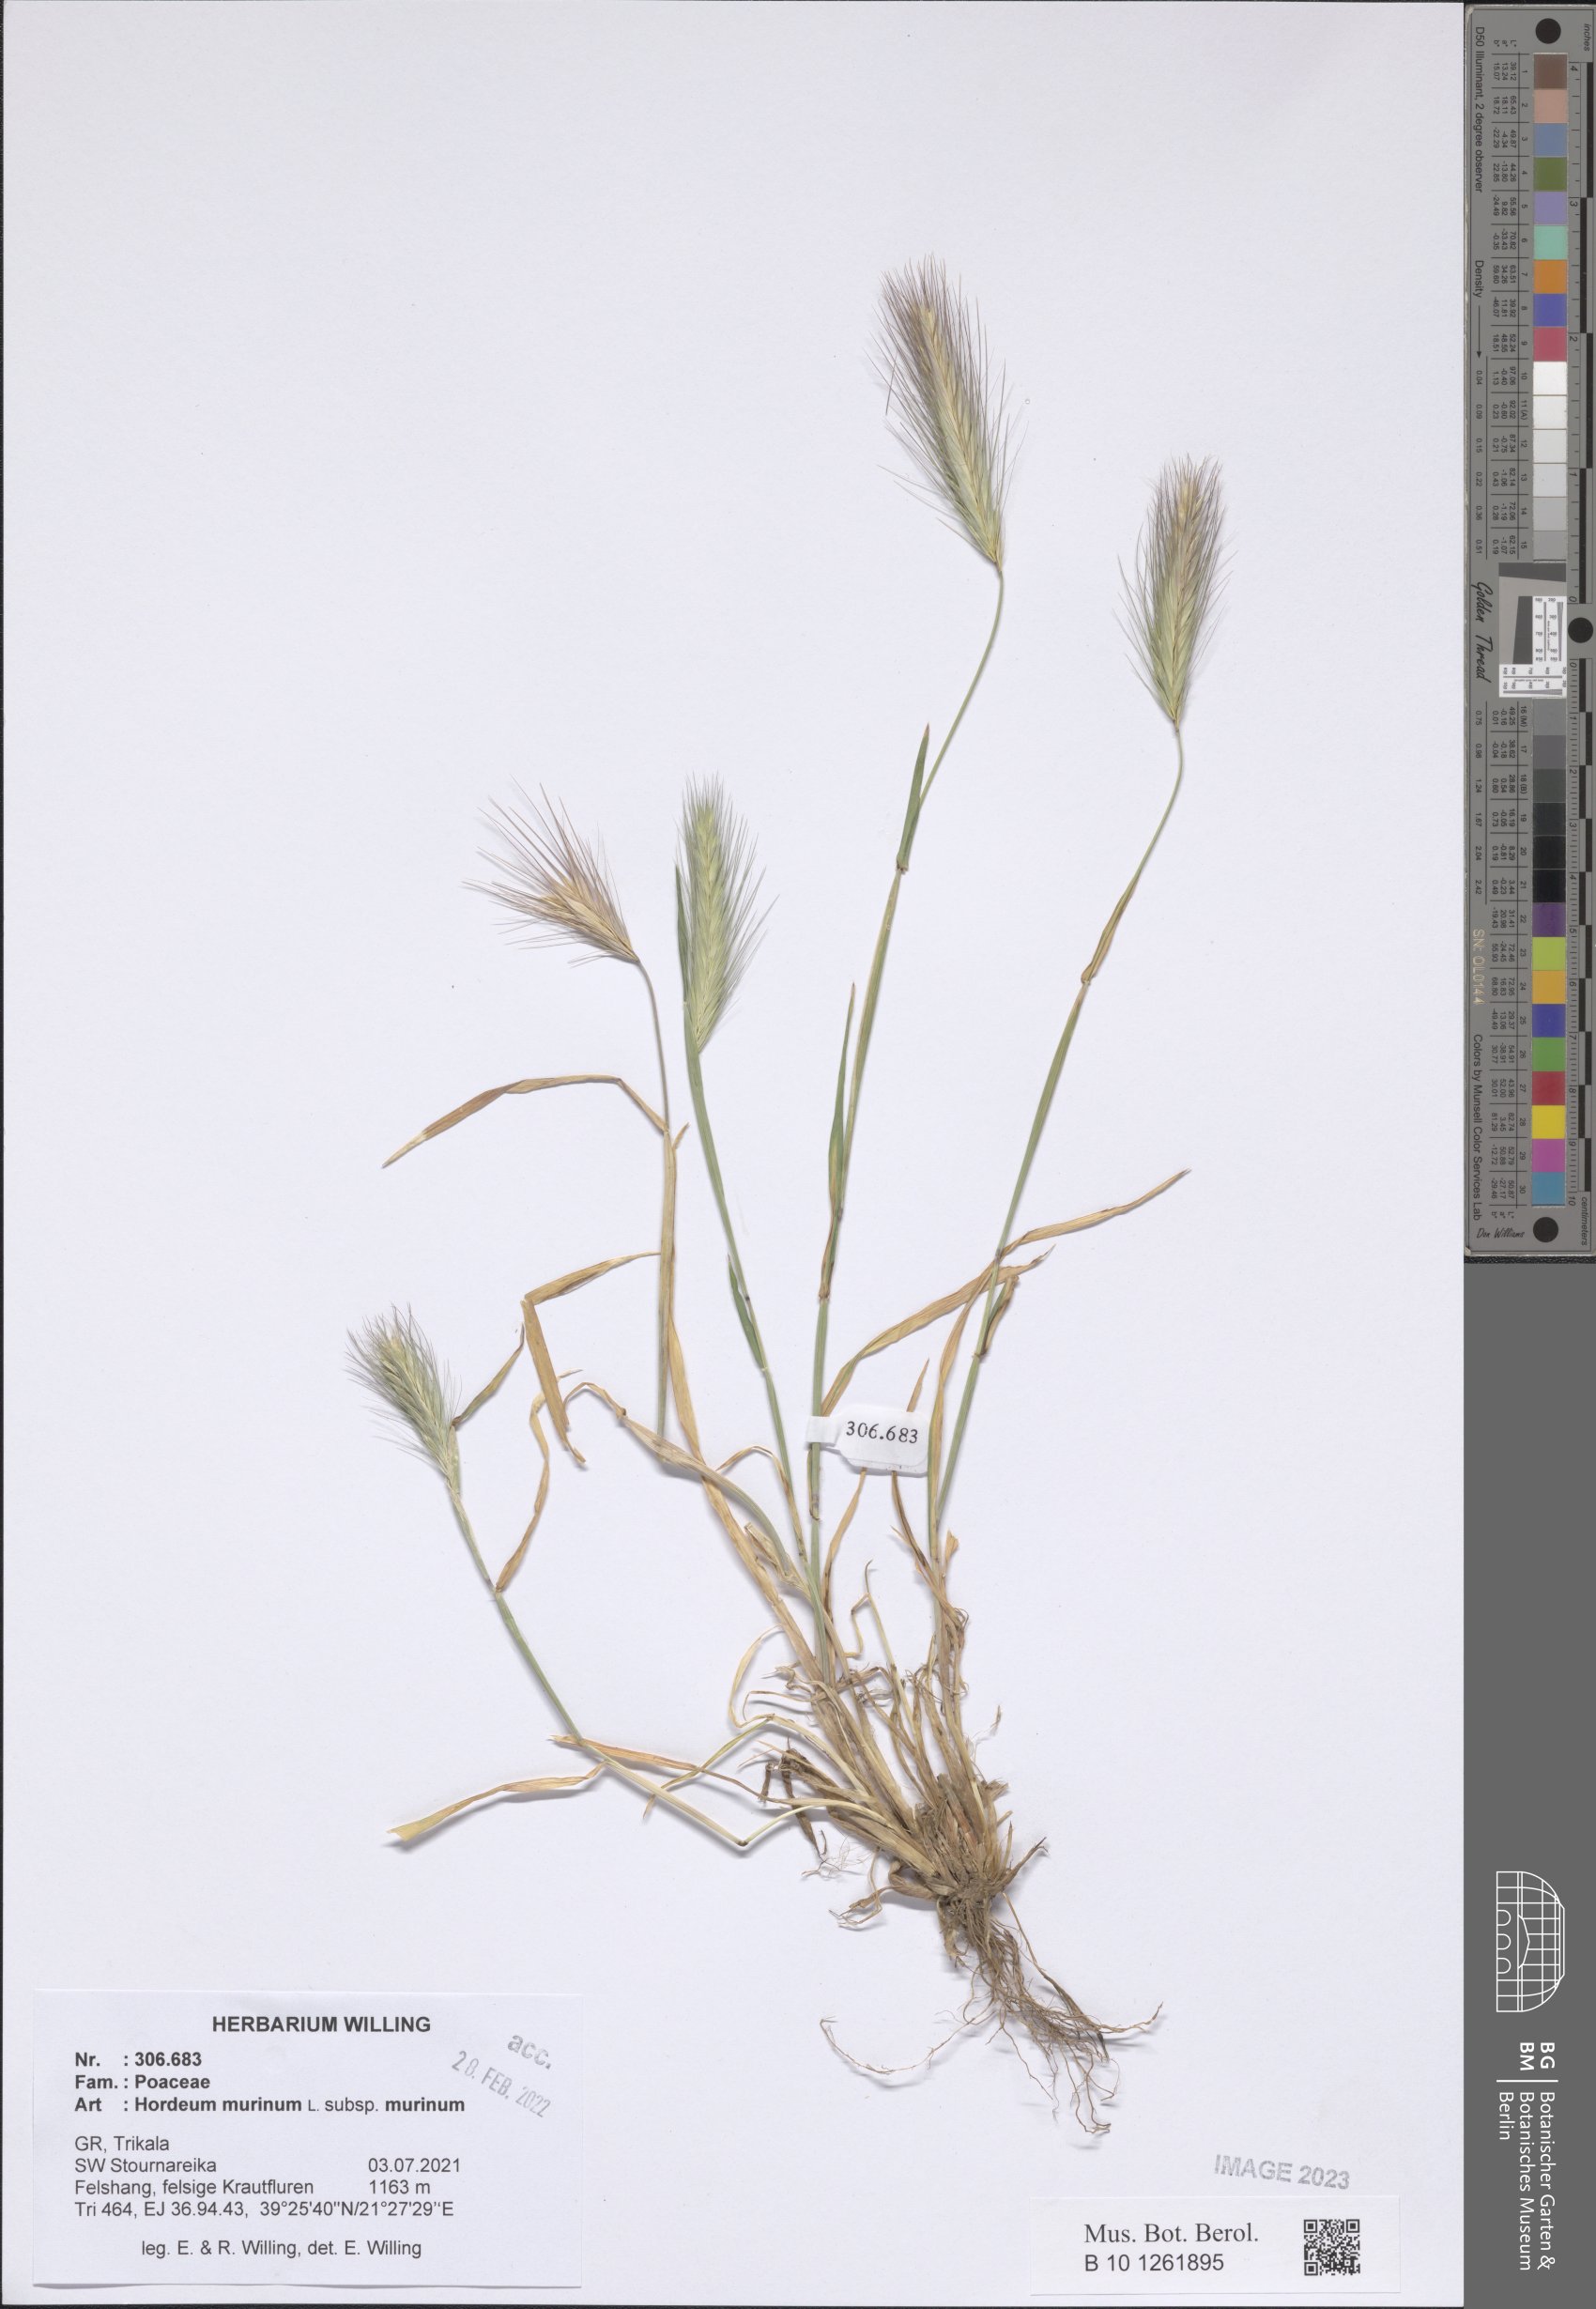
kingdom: Plantae
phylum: Tracheophyta
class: Liliopsida
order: Poales
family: Poaceae
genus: Hordeum
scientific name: Hordeum murinum
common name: Wall barley
